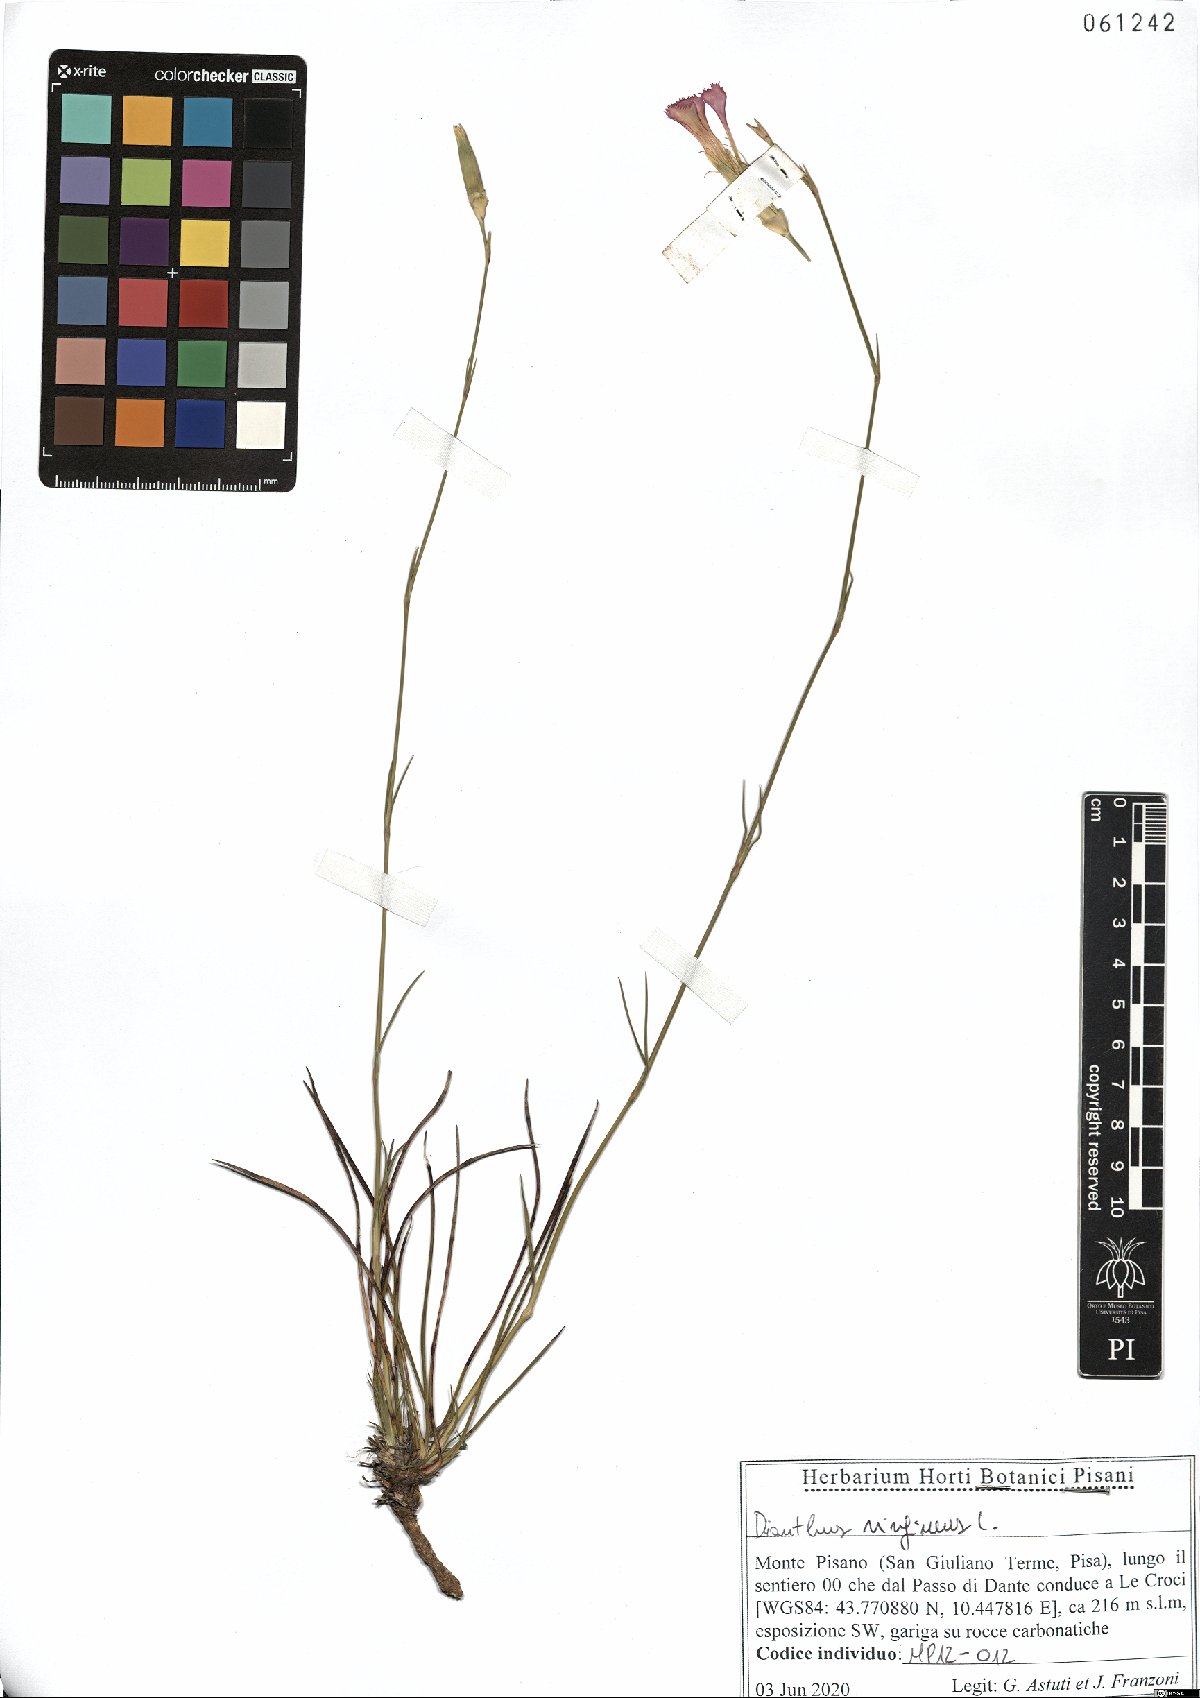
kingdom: Plantae
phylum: Tracheophyta
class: Magnoliopsida
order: Caryophyllales
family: Caryophyllaceae
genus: Dianthus
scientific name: Dianthus virgineus
